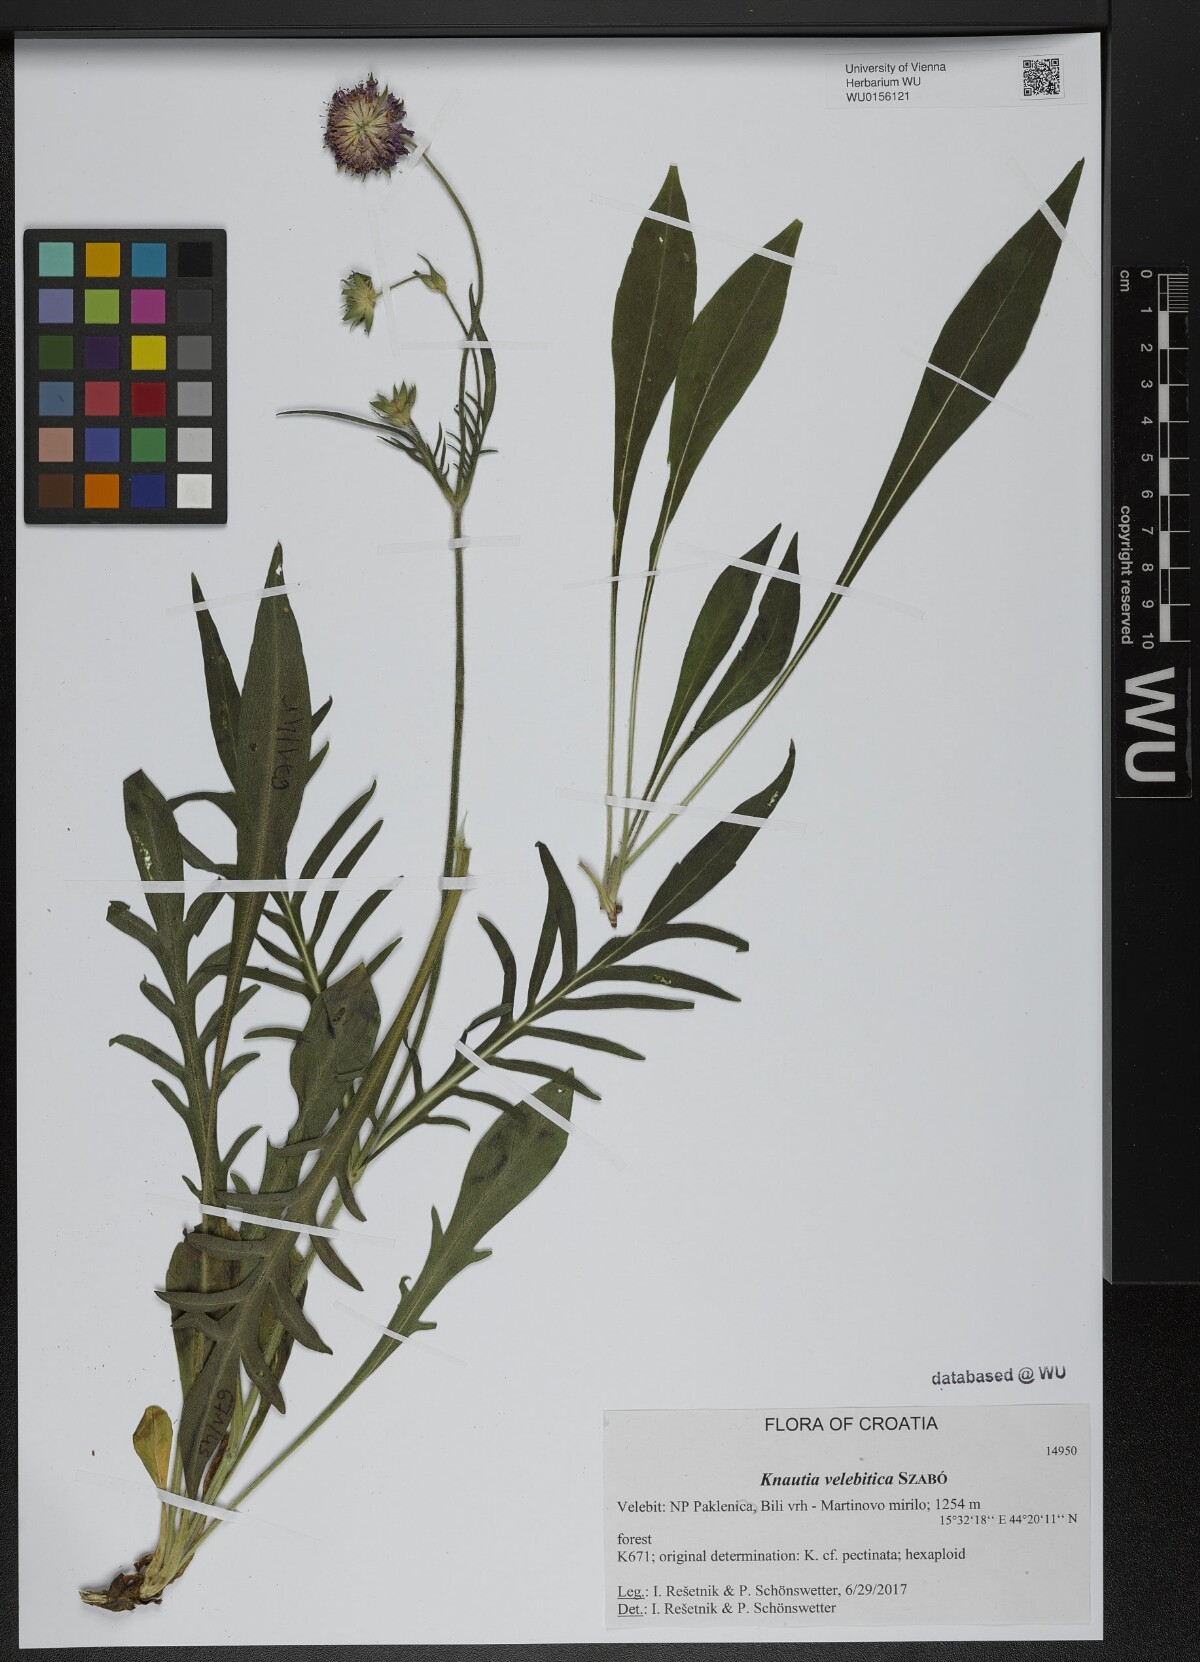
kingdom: Plantae
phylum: Tracheophyta
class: Magnoliopsida
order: Dipsacales
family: Caprifoliaceae
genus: Knautia
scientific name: Knautia velebitica
